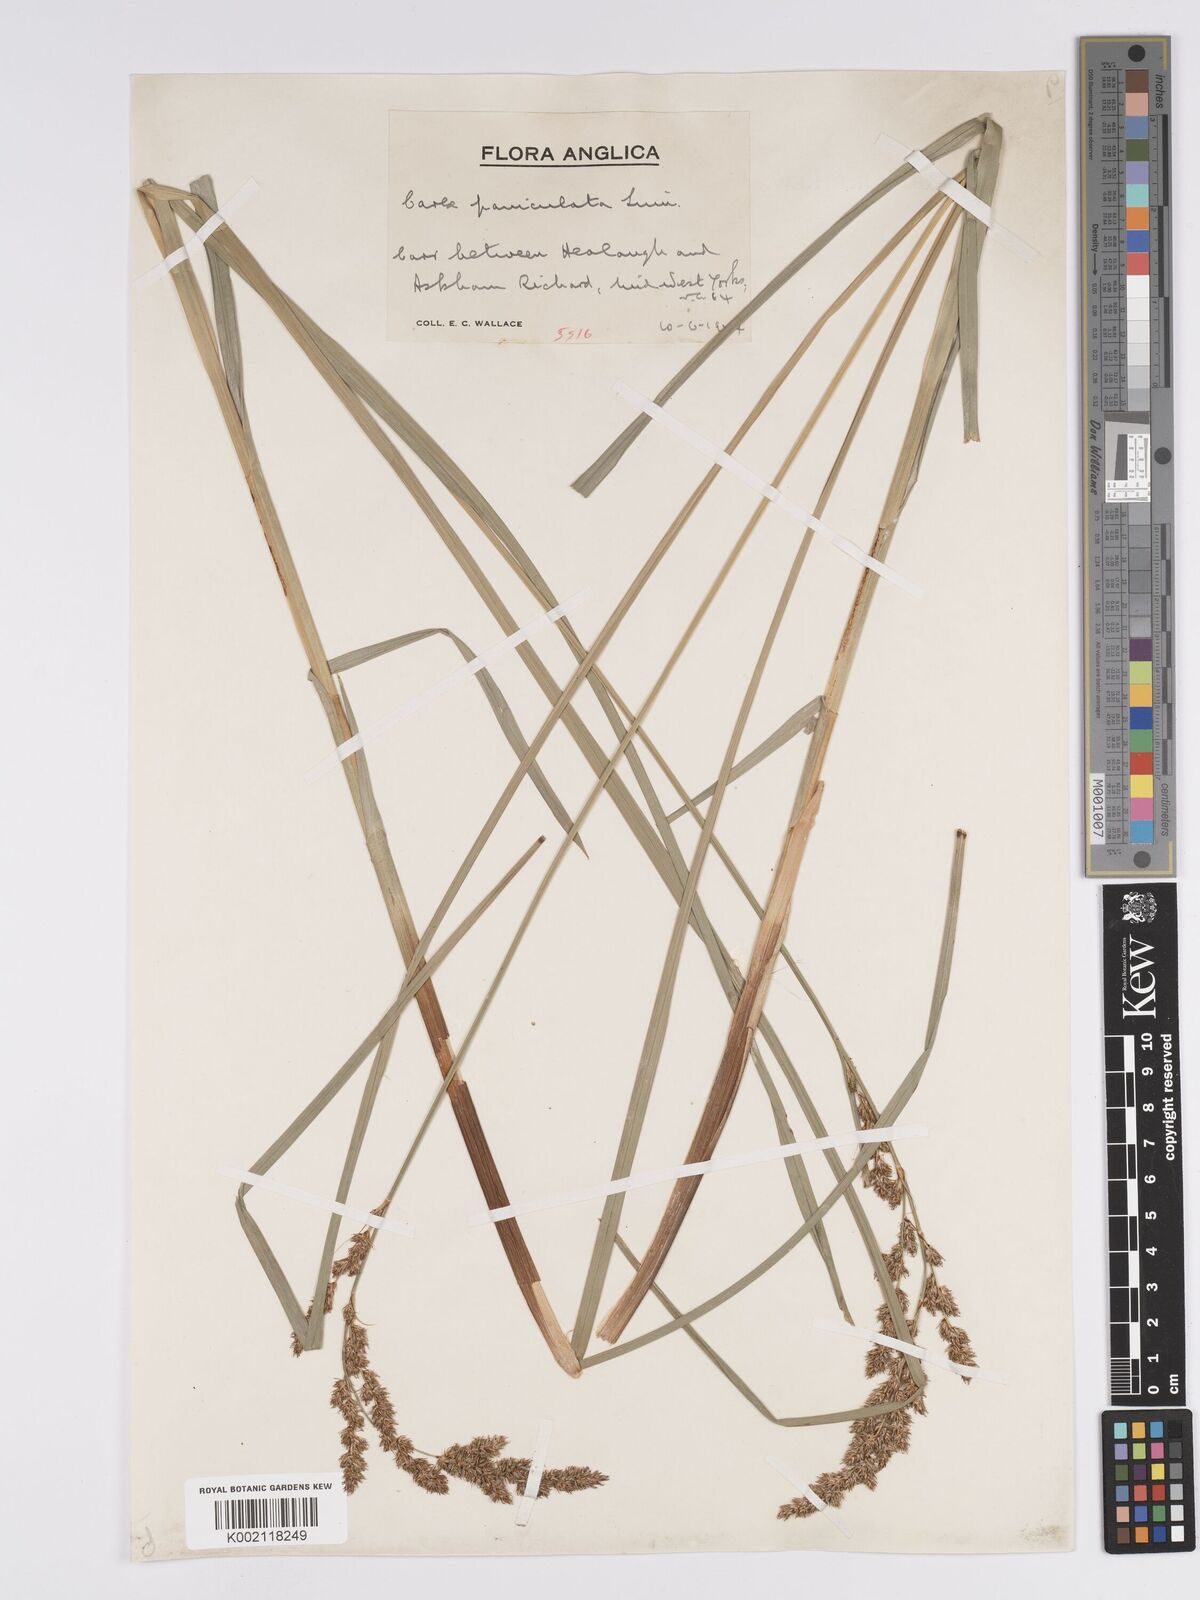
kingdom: Plantae
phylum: Tracheophyta
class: Liliopsida
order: Poales
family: Cyperaceae
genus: Carex
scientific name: Carex paniculata
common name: Greater tussock-sedge
